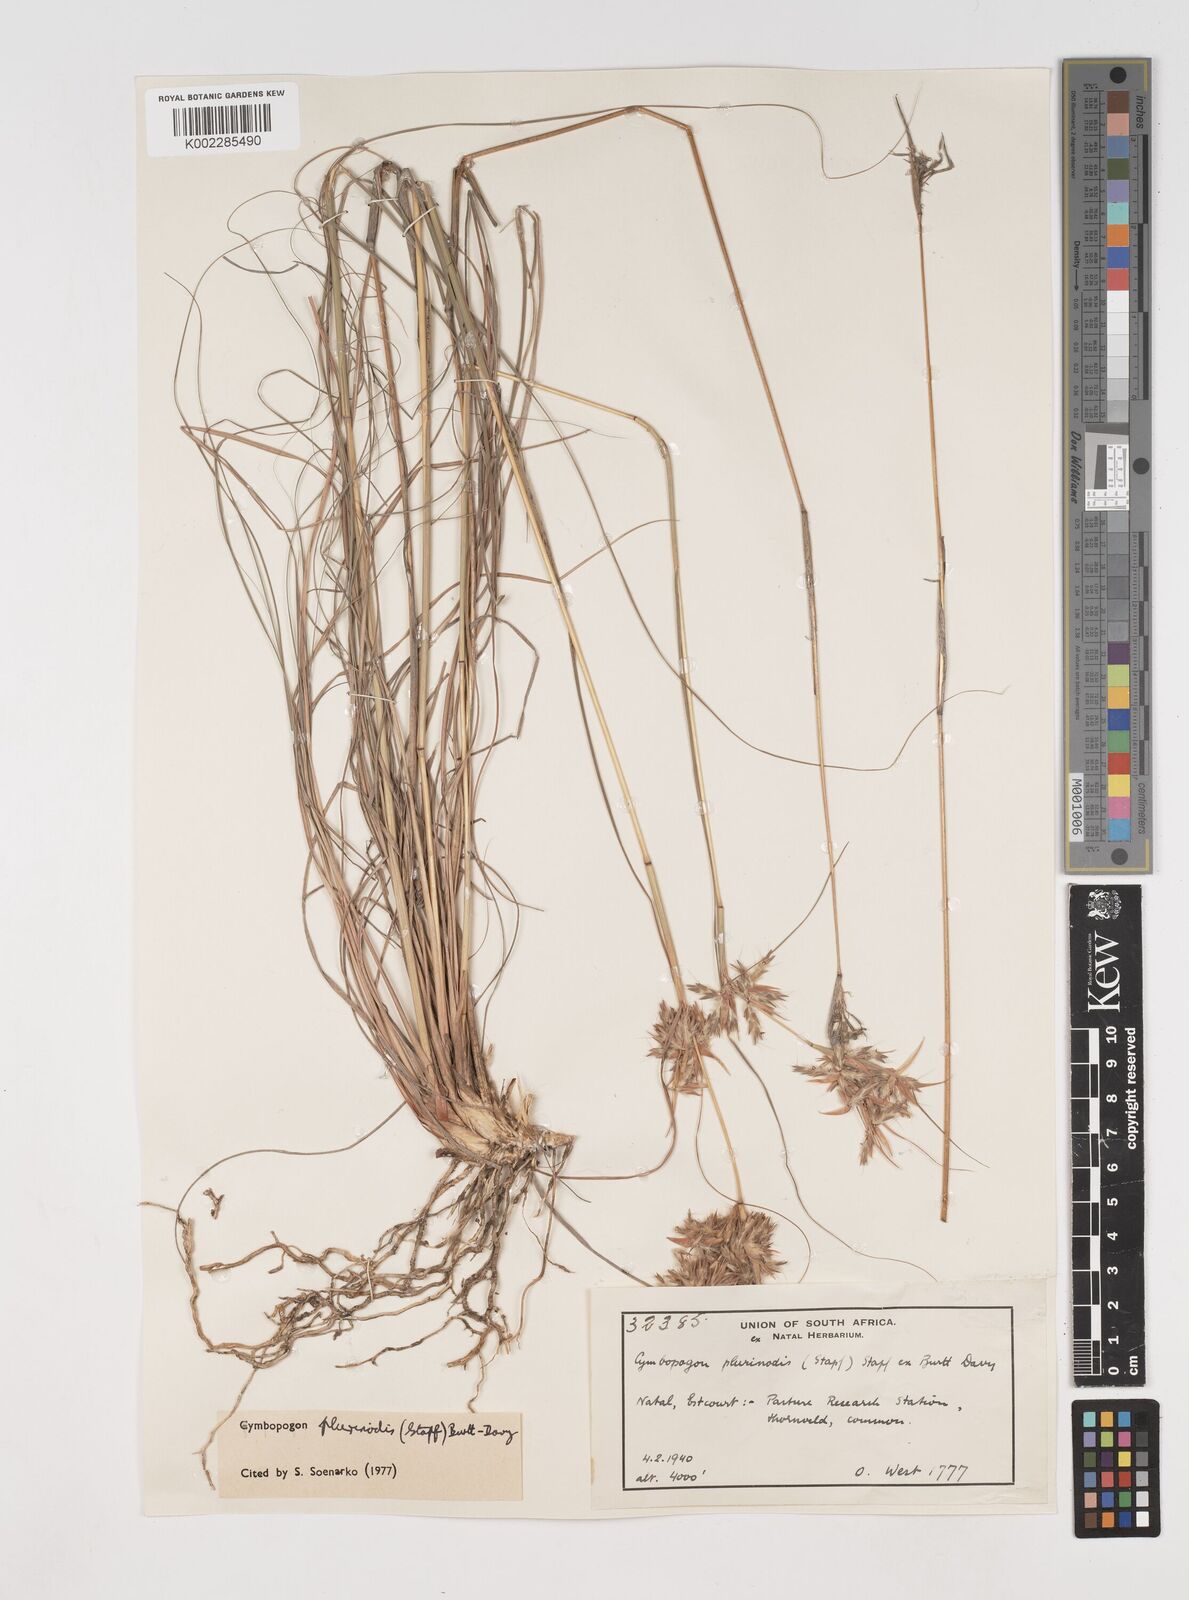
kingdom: Plantae
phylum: Tracheophyta
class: Liliopsida
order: Poales
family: Poaceae
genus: Cymbopogon
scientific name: Cymbopogon pospischilii
